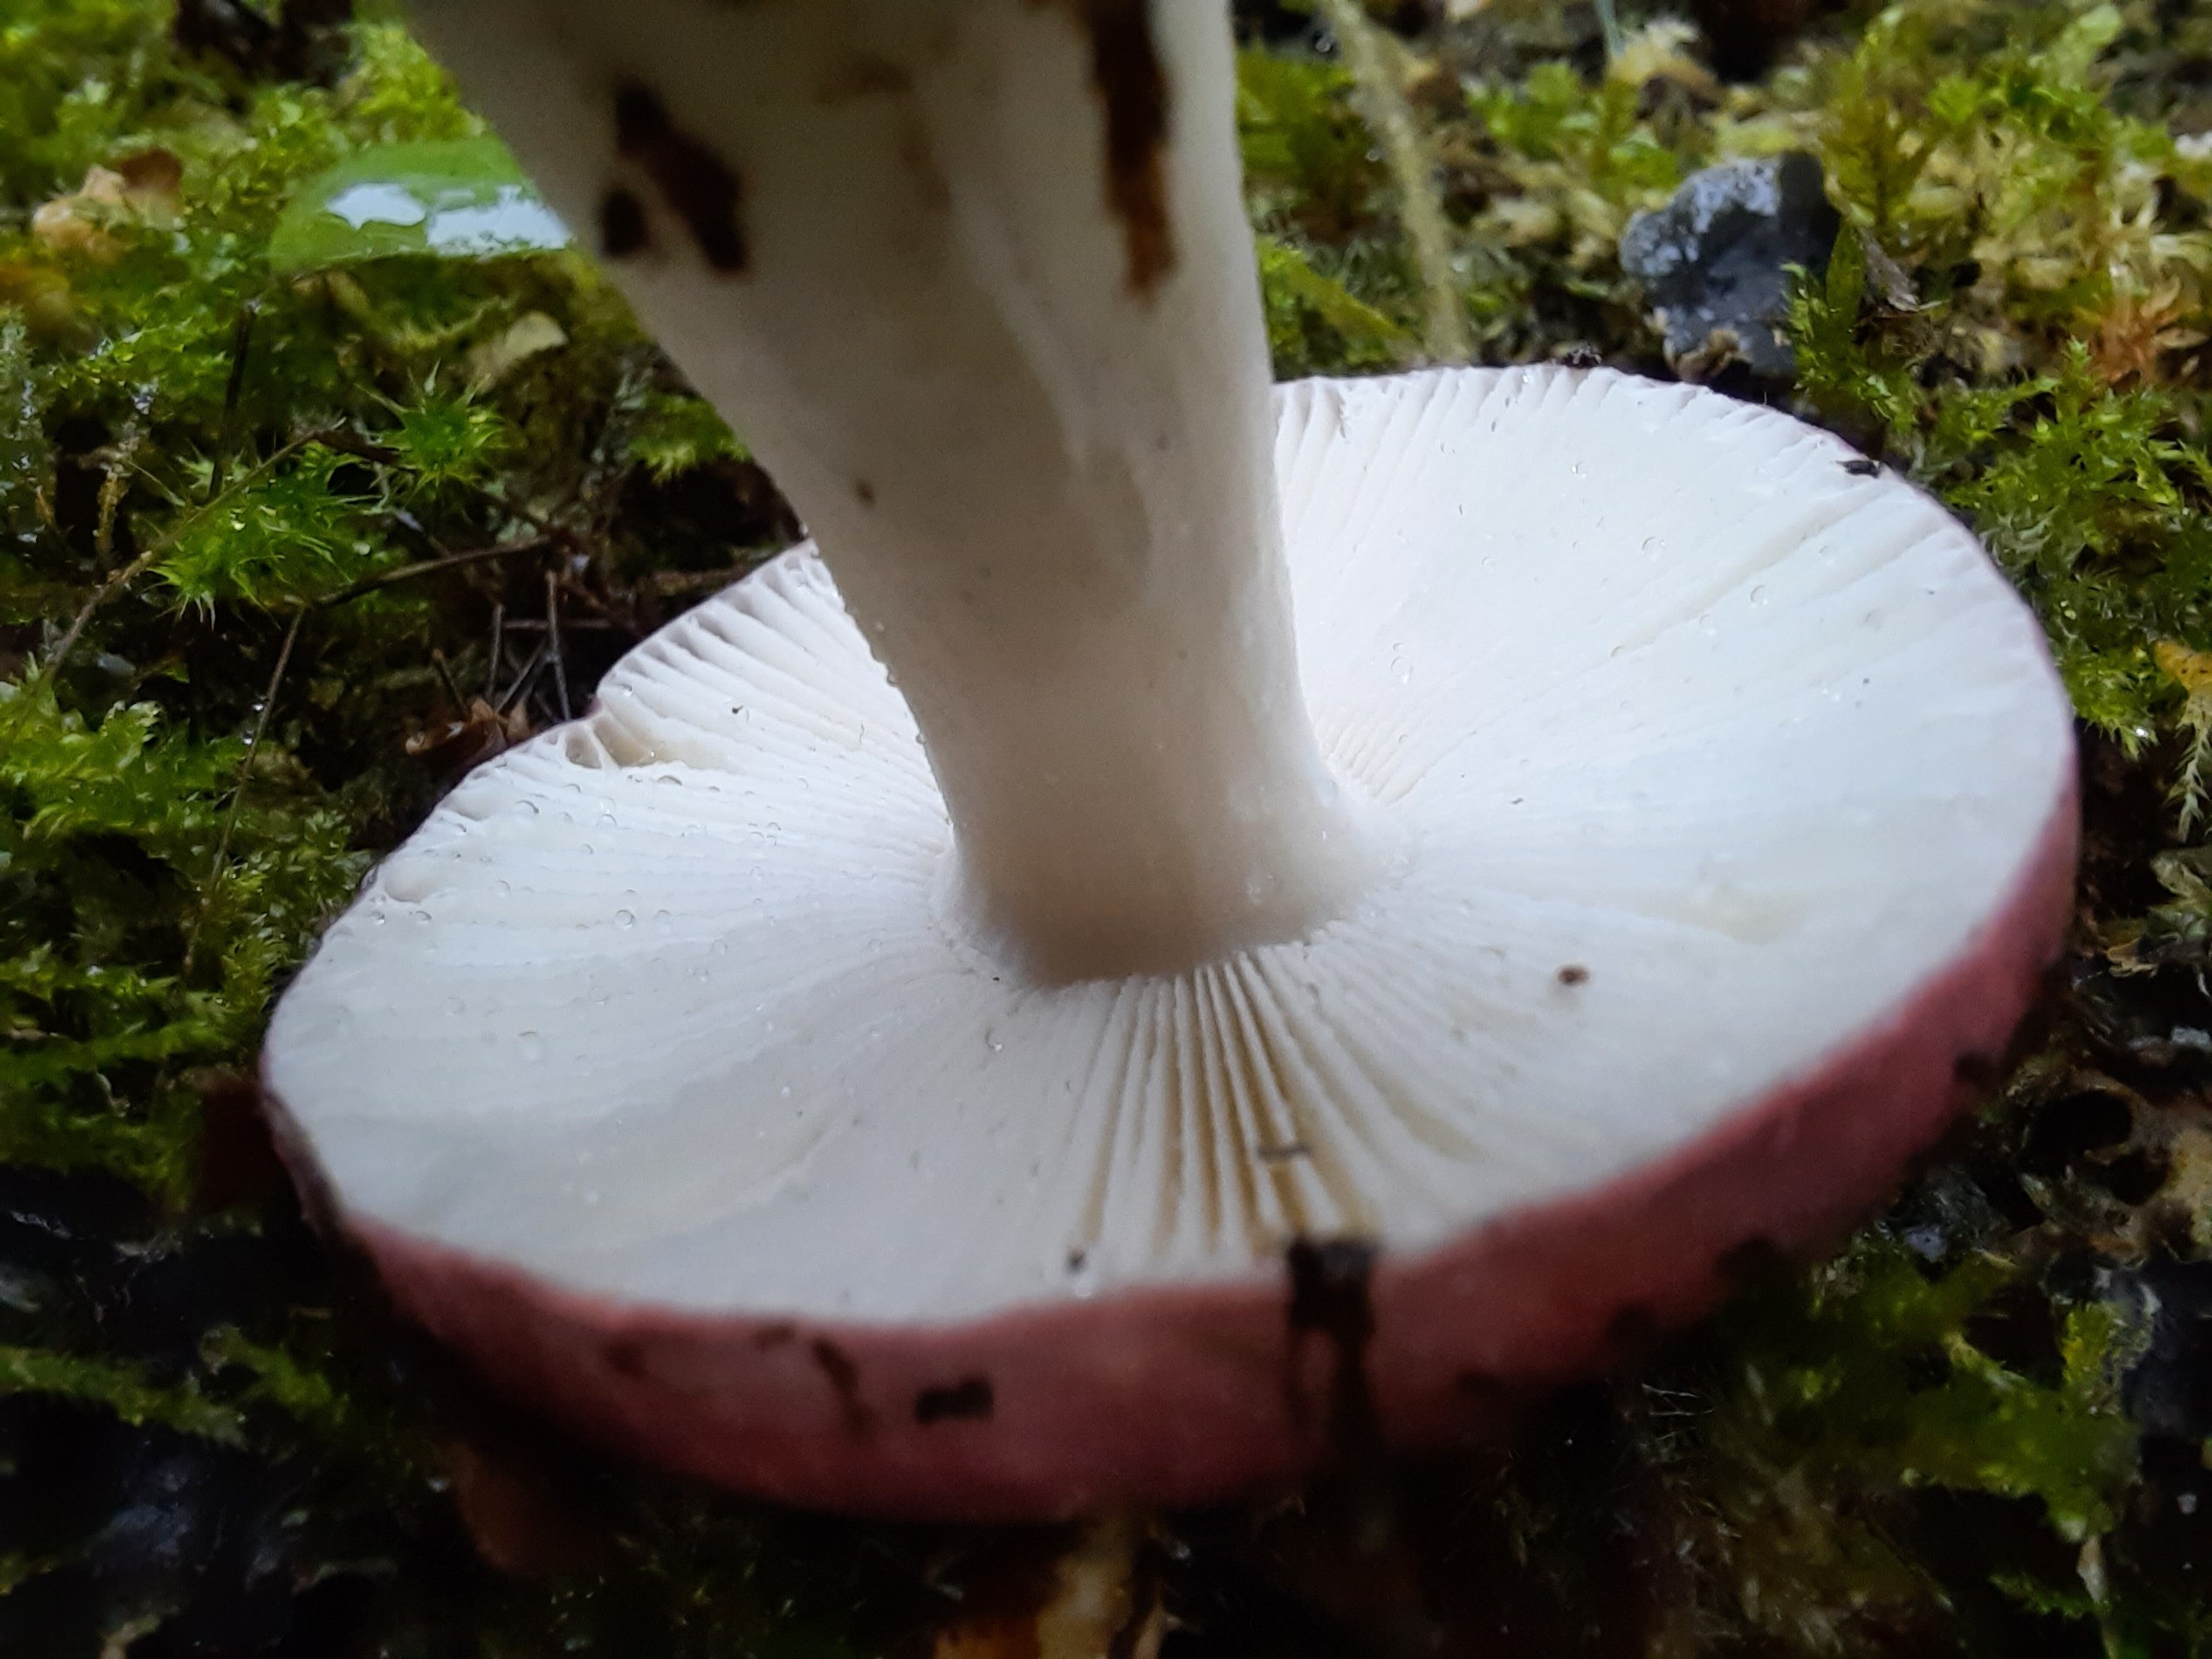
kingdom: Fungi
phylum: Basidiomycota
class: Agaricomycetes
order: Russulales
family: Russulaceae
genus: Russula
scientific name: Russula fragilis
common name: Fragile brittlegill
